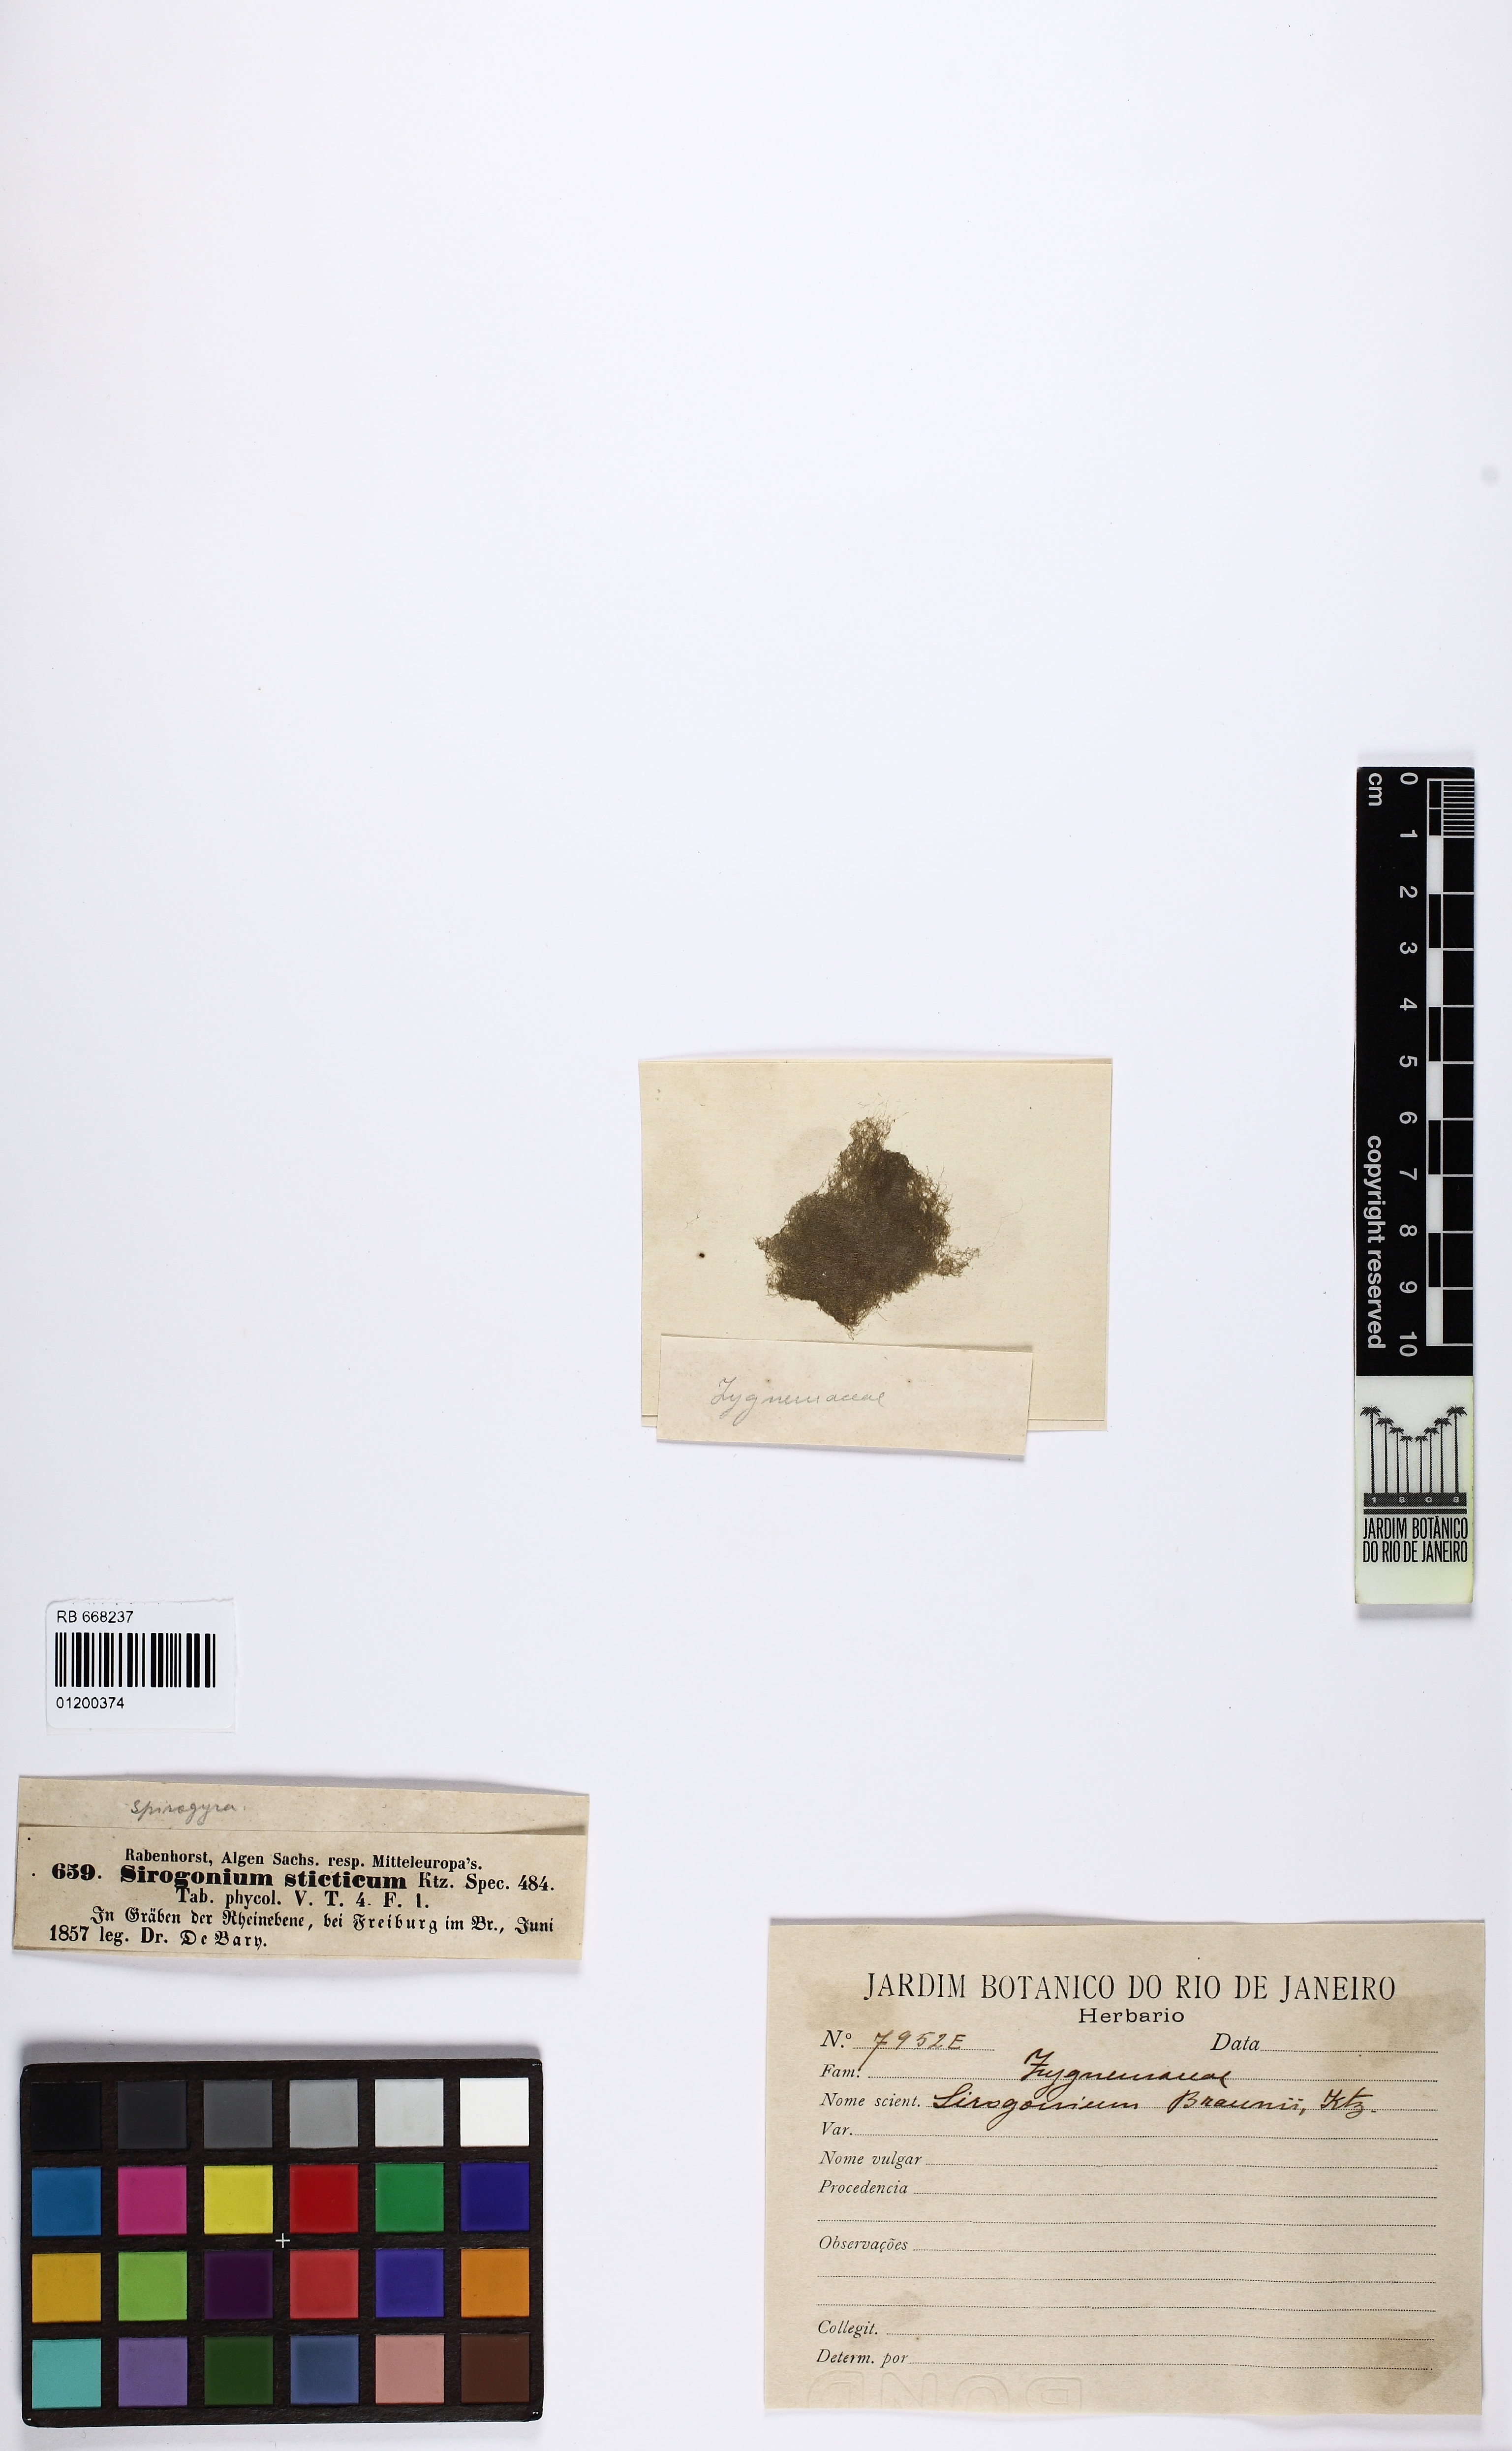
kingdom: Plantae
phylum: Charophyta
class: Zygnematophyceae
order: Zygnematales
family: Zygnemataceae
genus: Sirogonium
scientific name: Sirogonium sticticum
